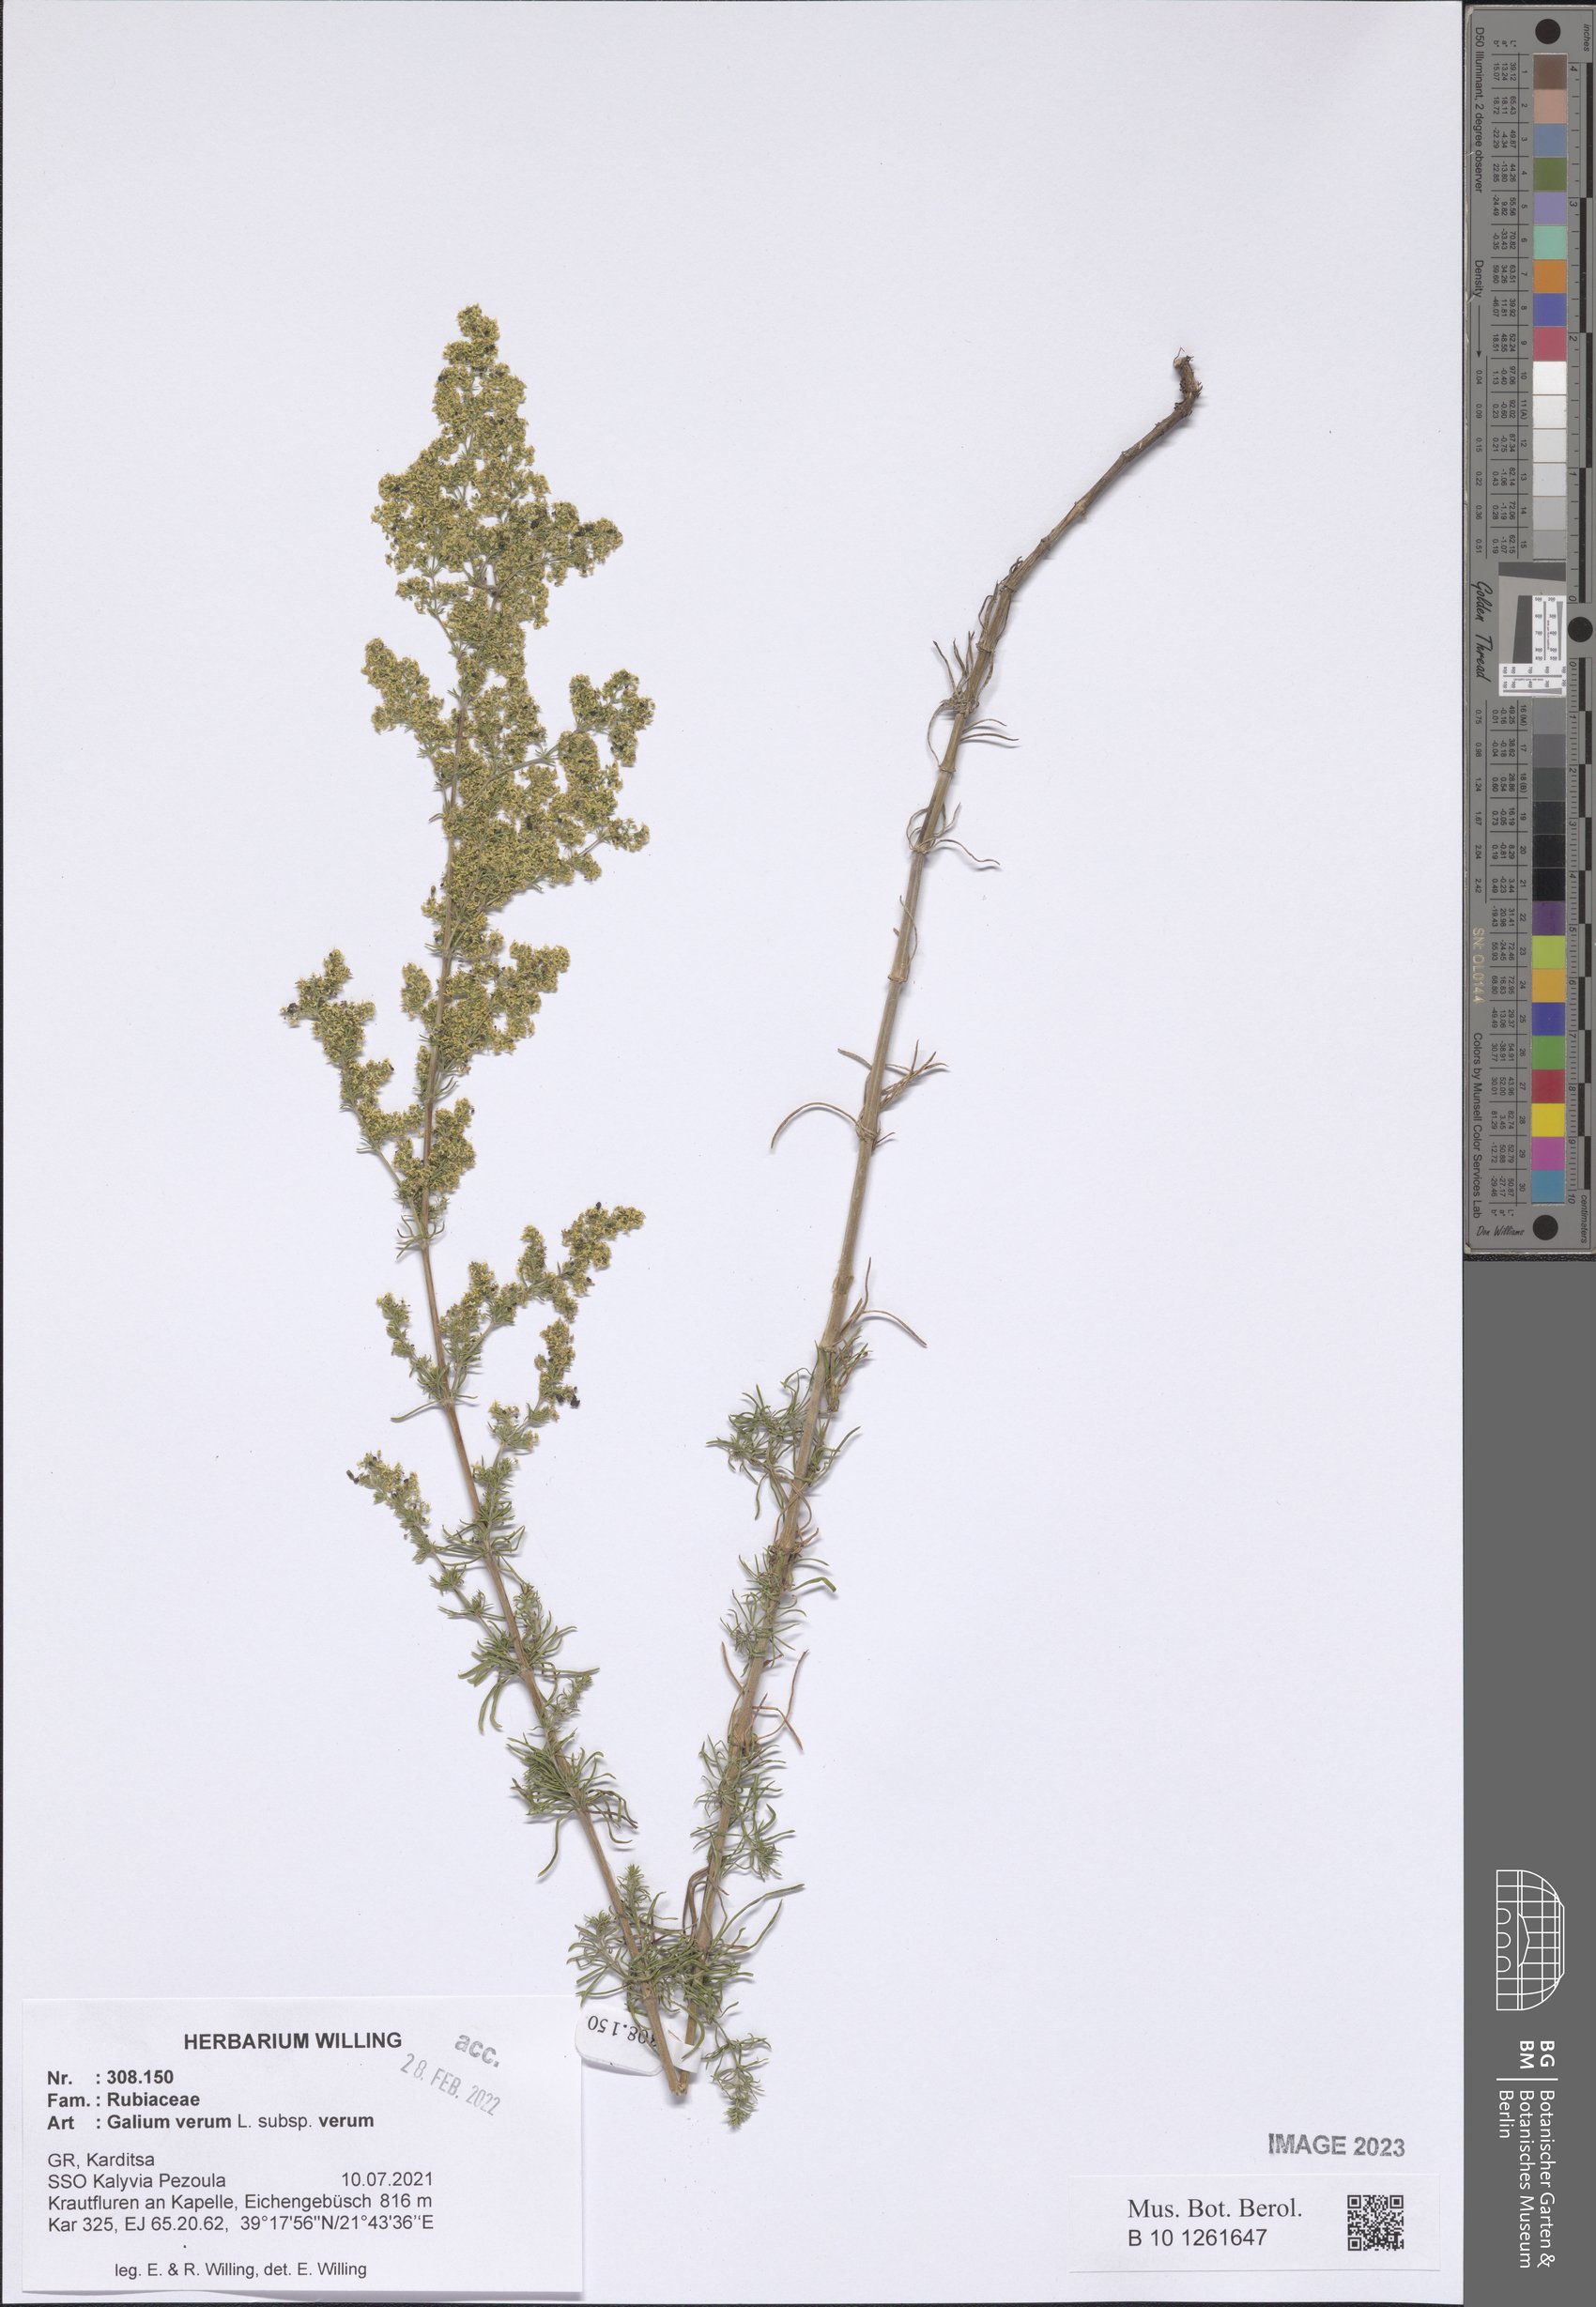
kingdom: Plantae
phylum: Tracheophyta
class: Magnoliopsida
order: Gentianales
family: Rubiaceae
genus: Galium
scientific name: Galium verum
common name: Lady's bedstraw
